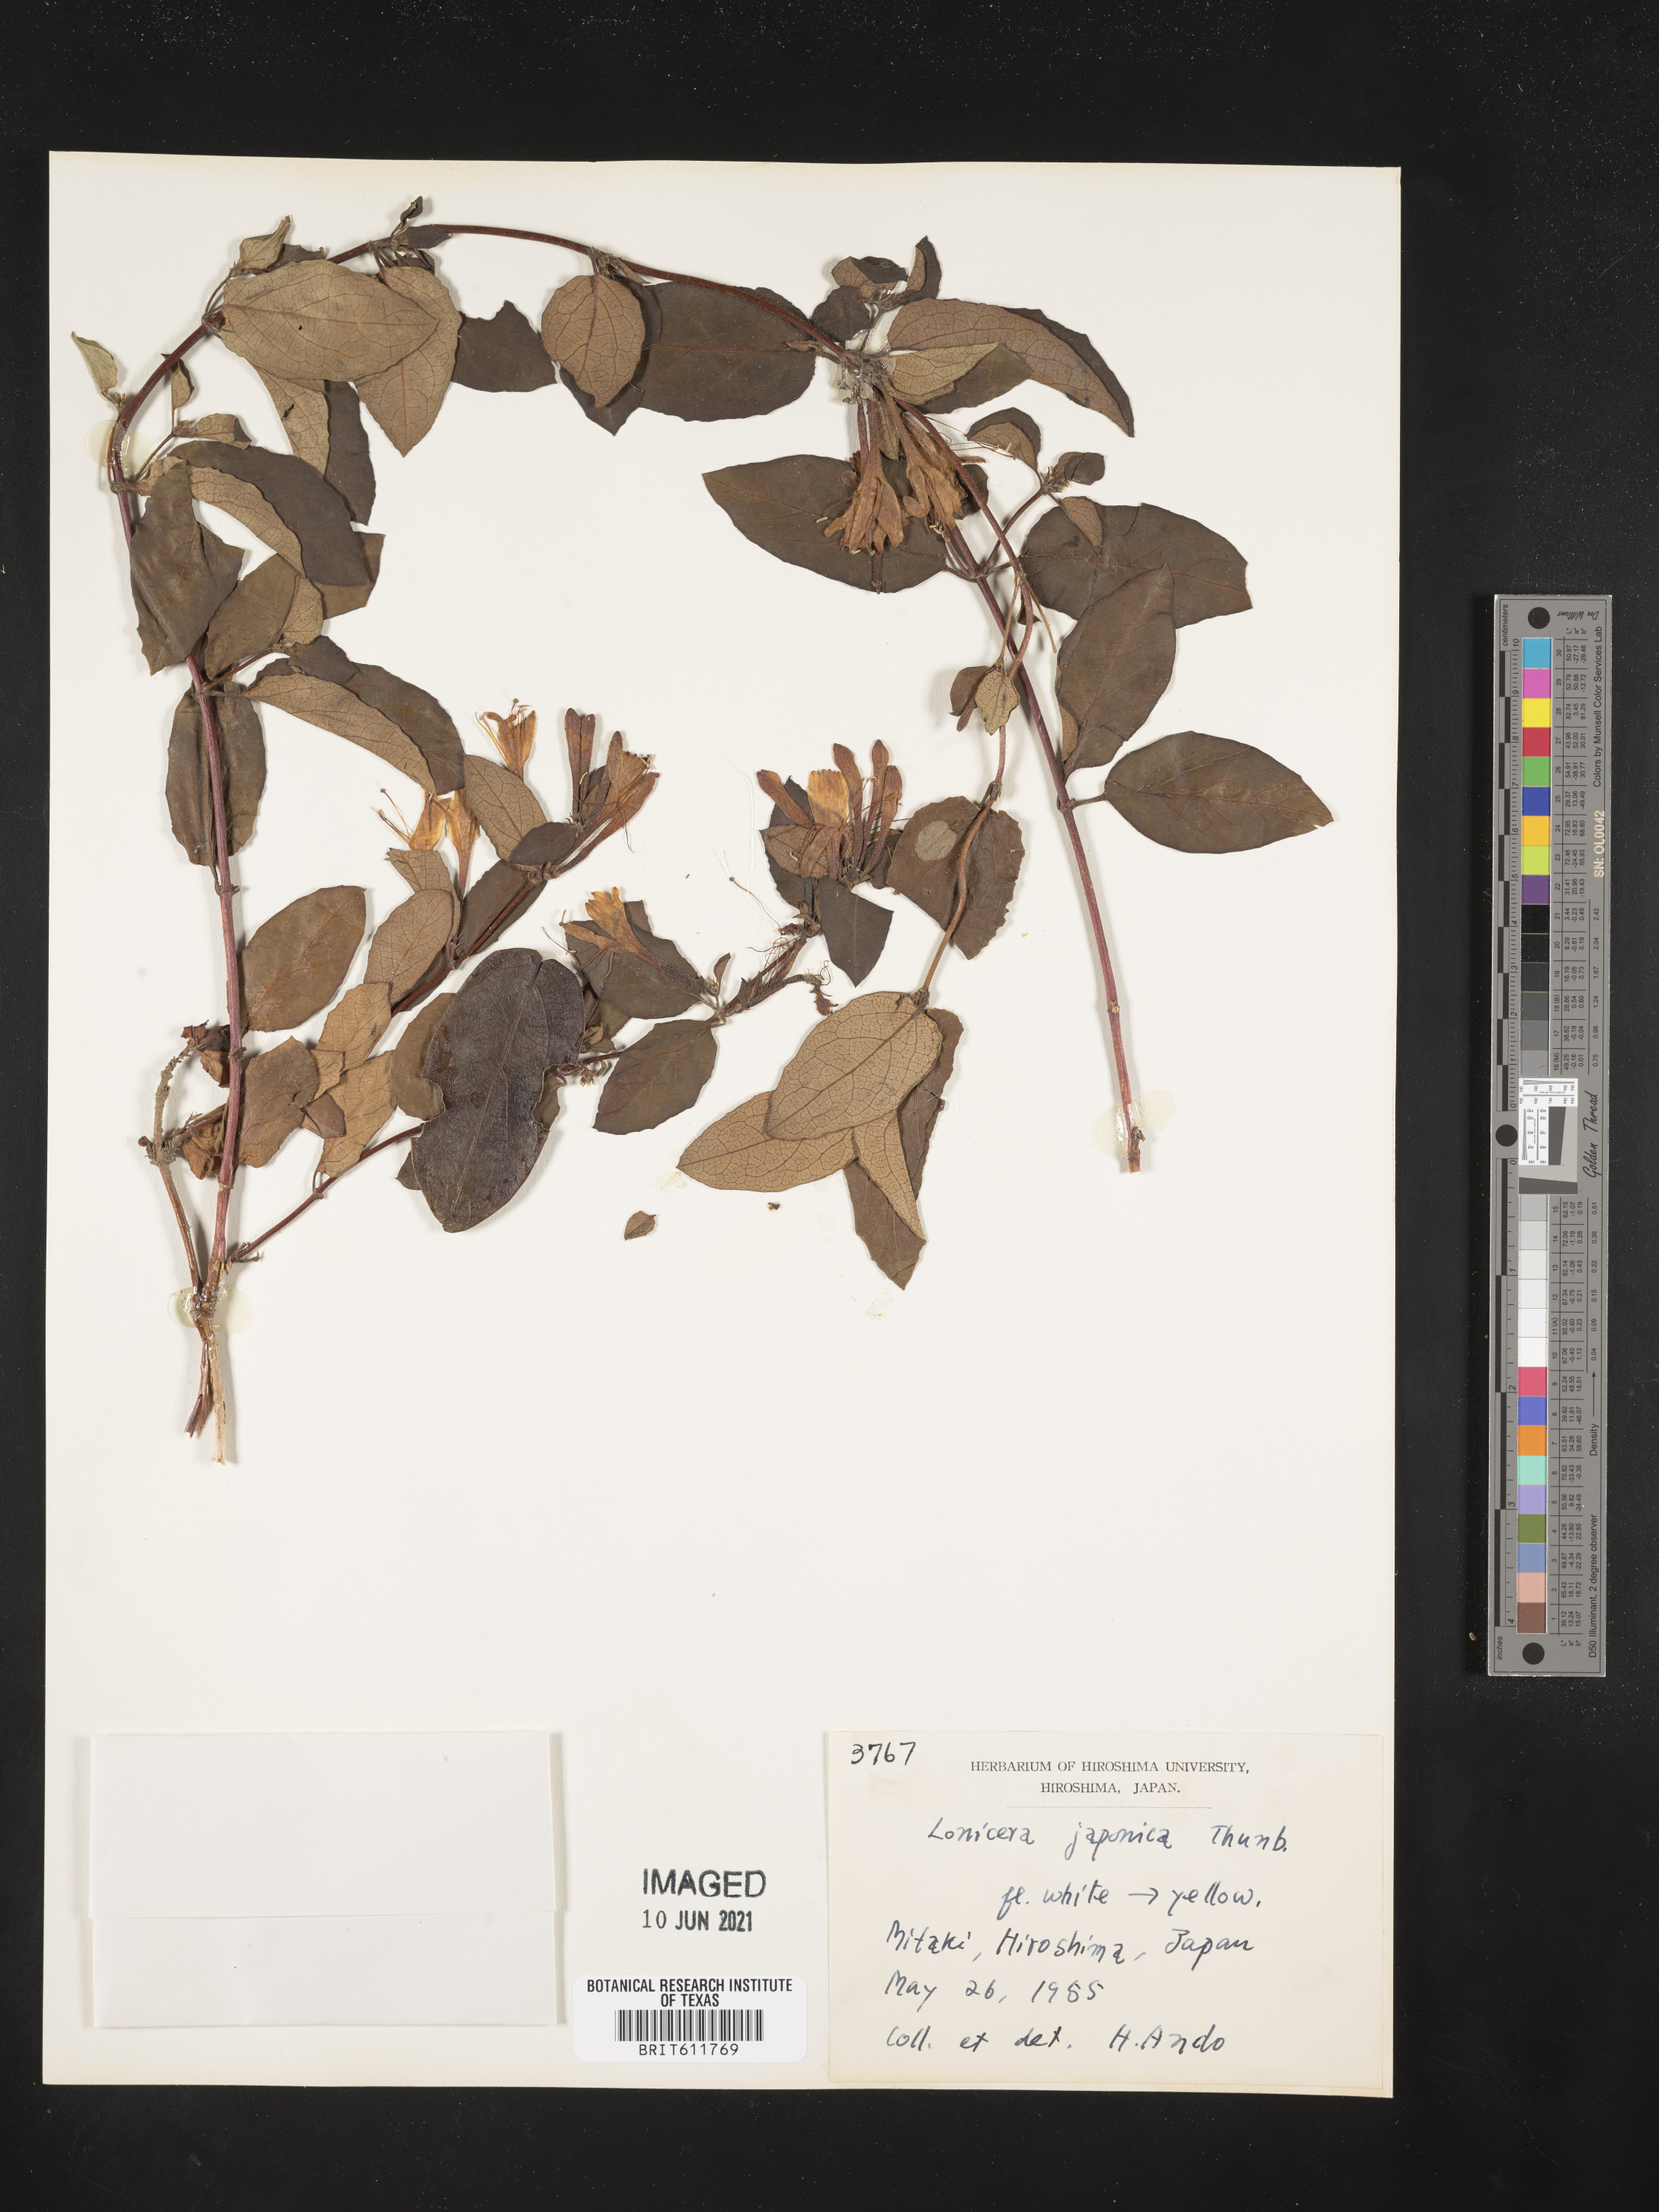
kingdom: Plantae
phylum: Tracheophyta
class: Magnoliopsida
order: Dipsacales
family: Caprifoliaceae
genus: Lonicera
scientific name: Lonicera japonica
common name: Japanese honeysuckle
